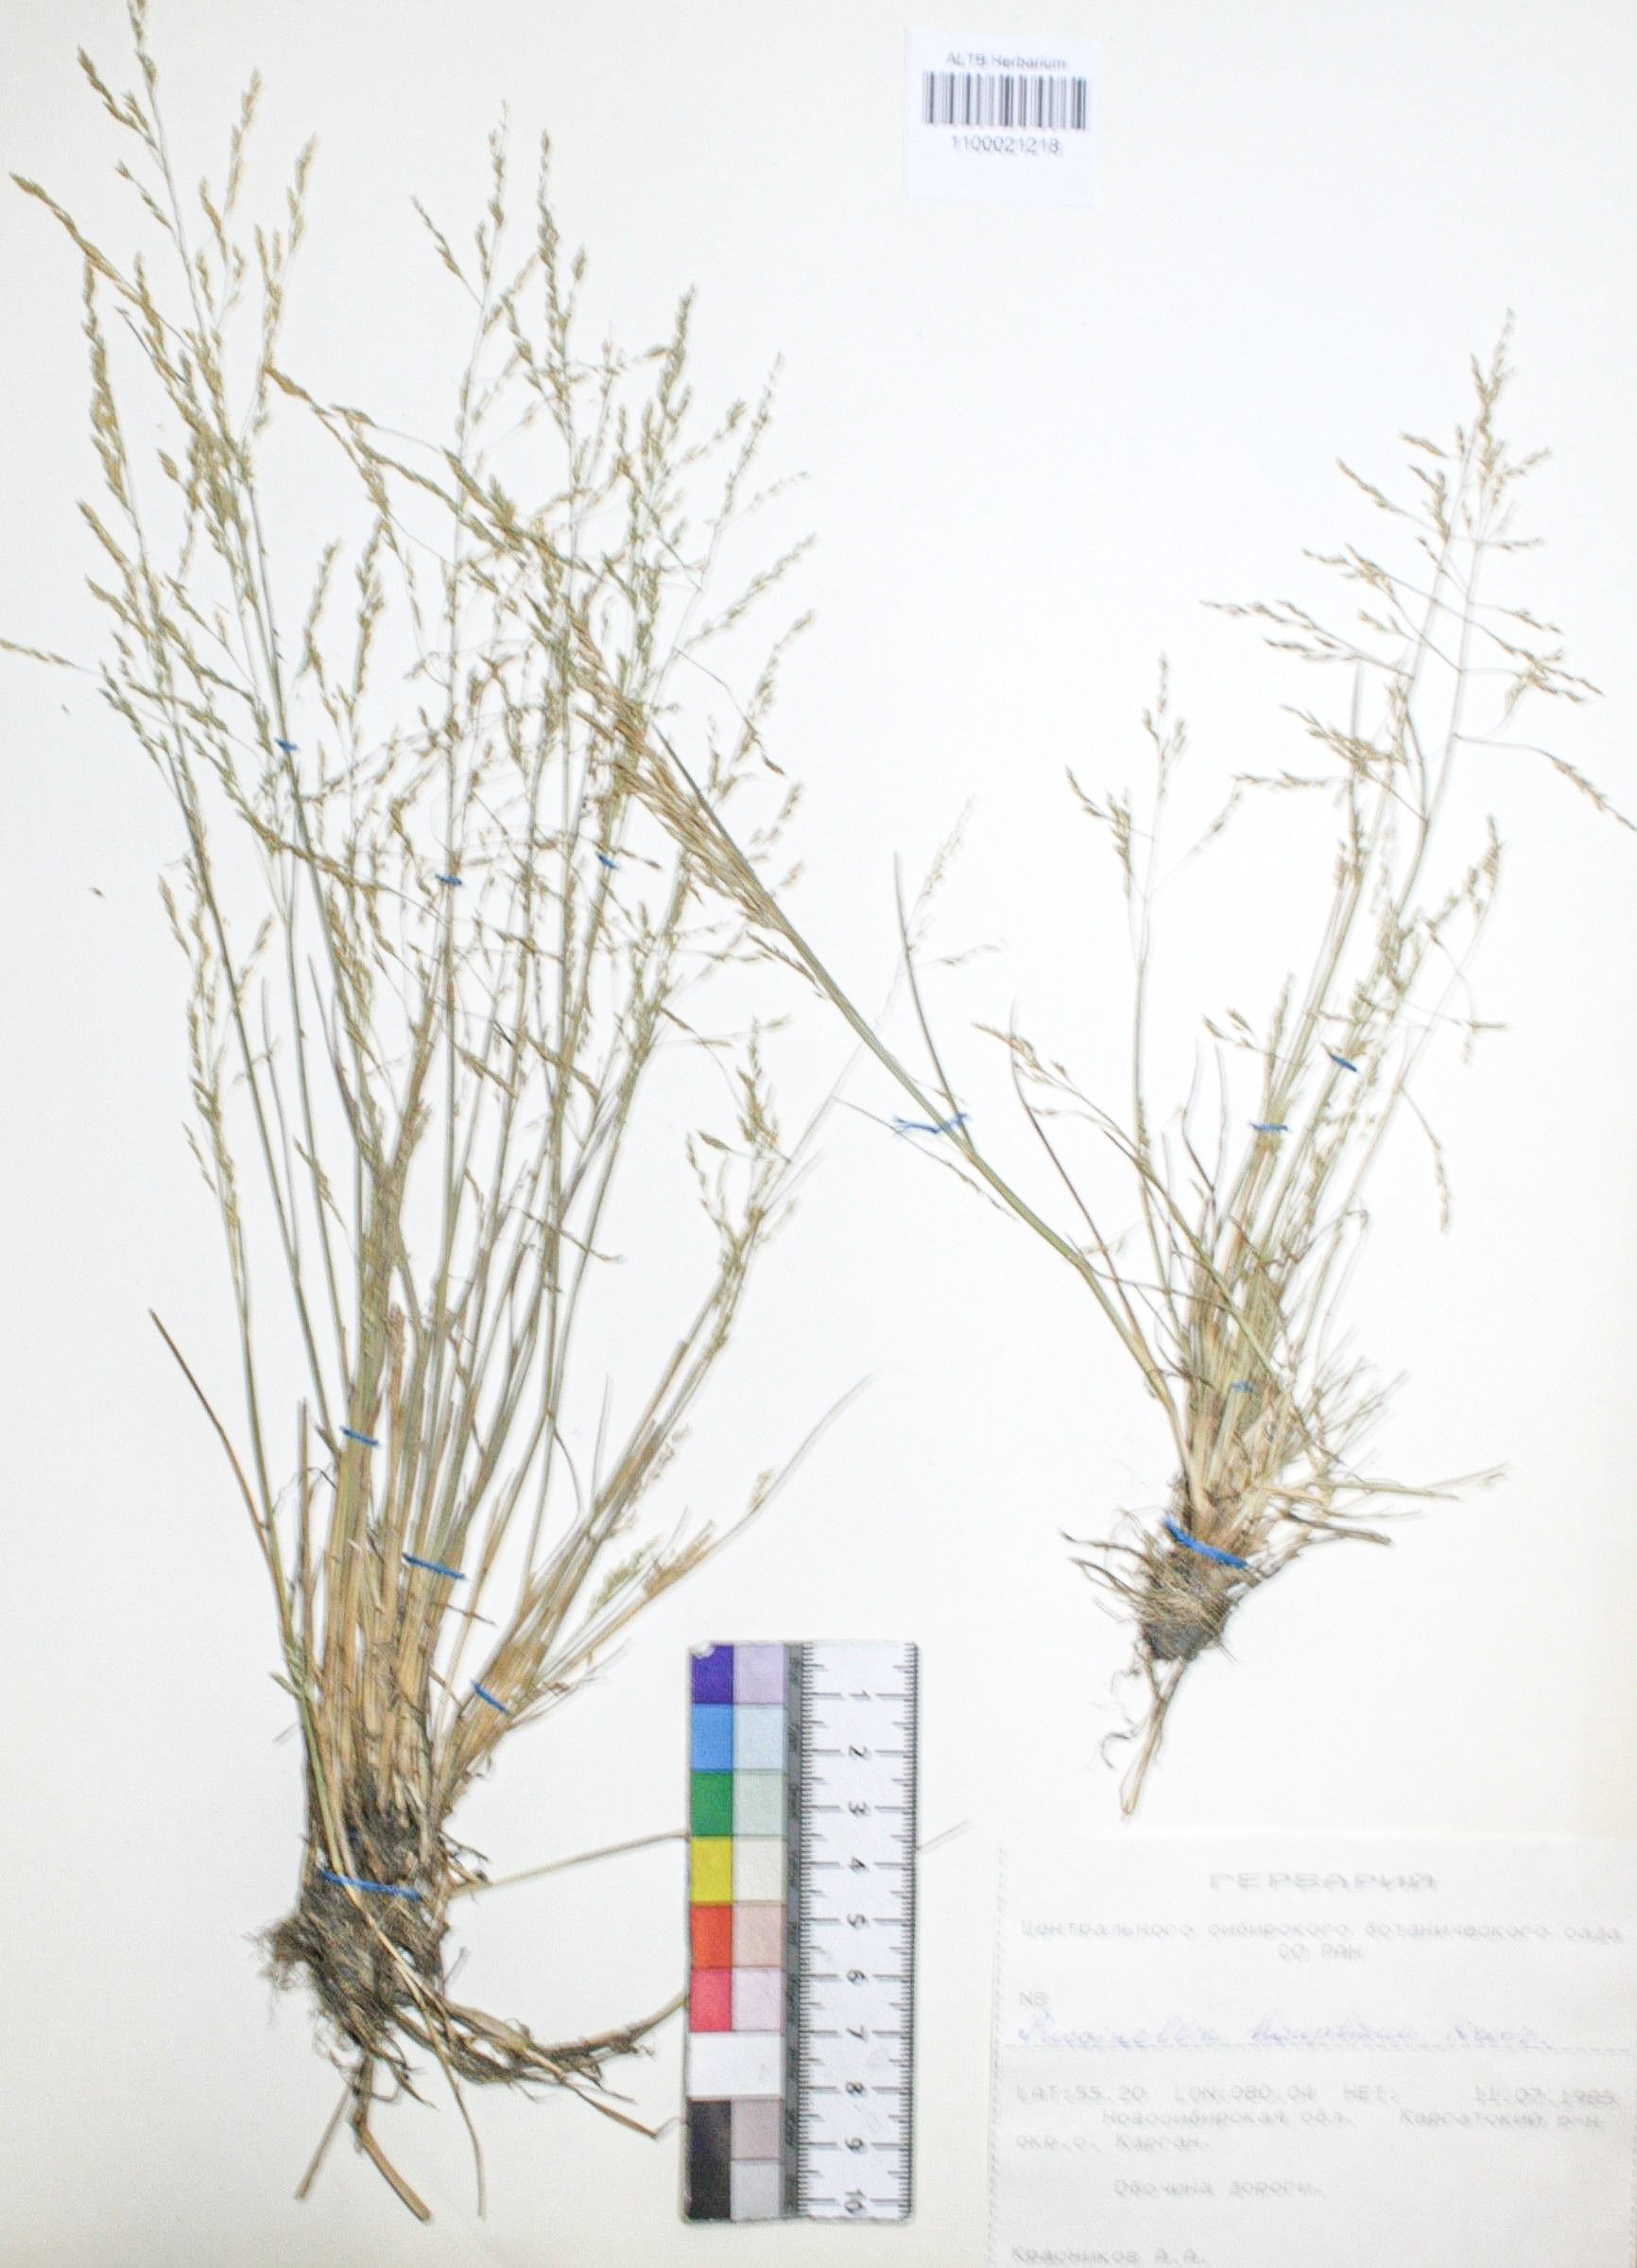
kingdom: Plantae
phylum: Tracheophyta
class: Liliopsida
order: Poales
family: Poaceae
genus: Puccinellia
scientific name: Puccinellia hauptiana
